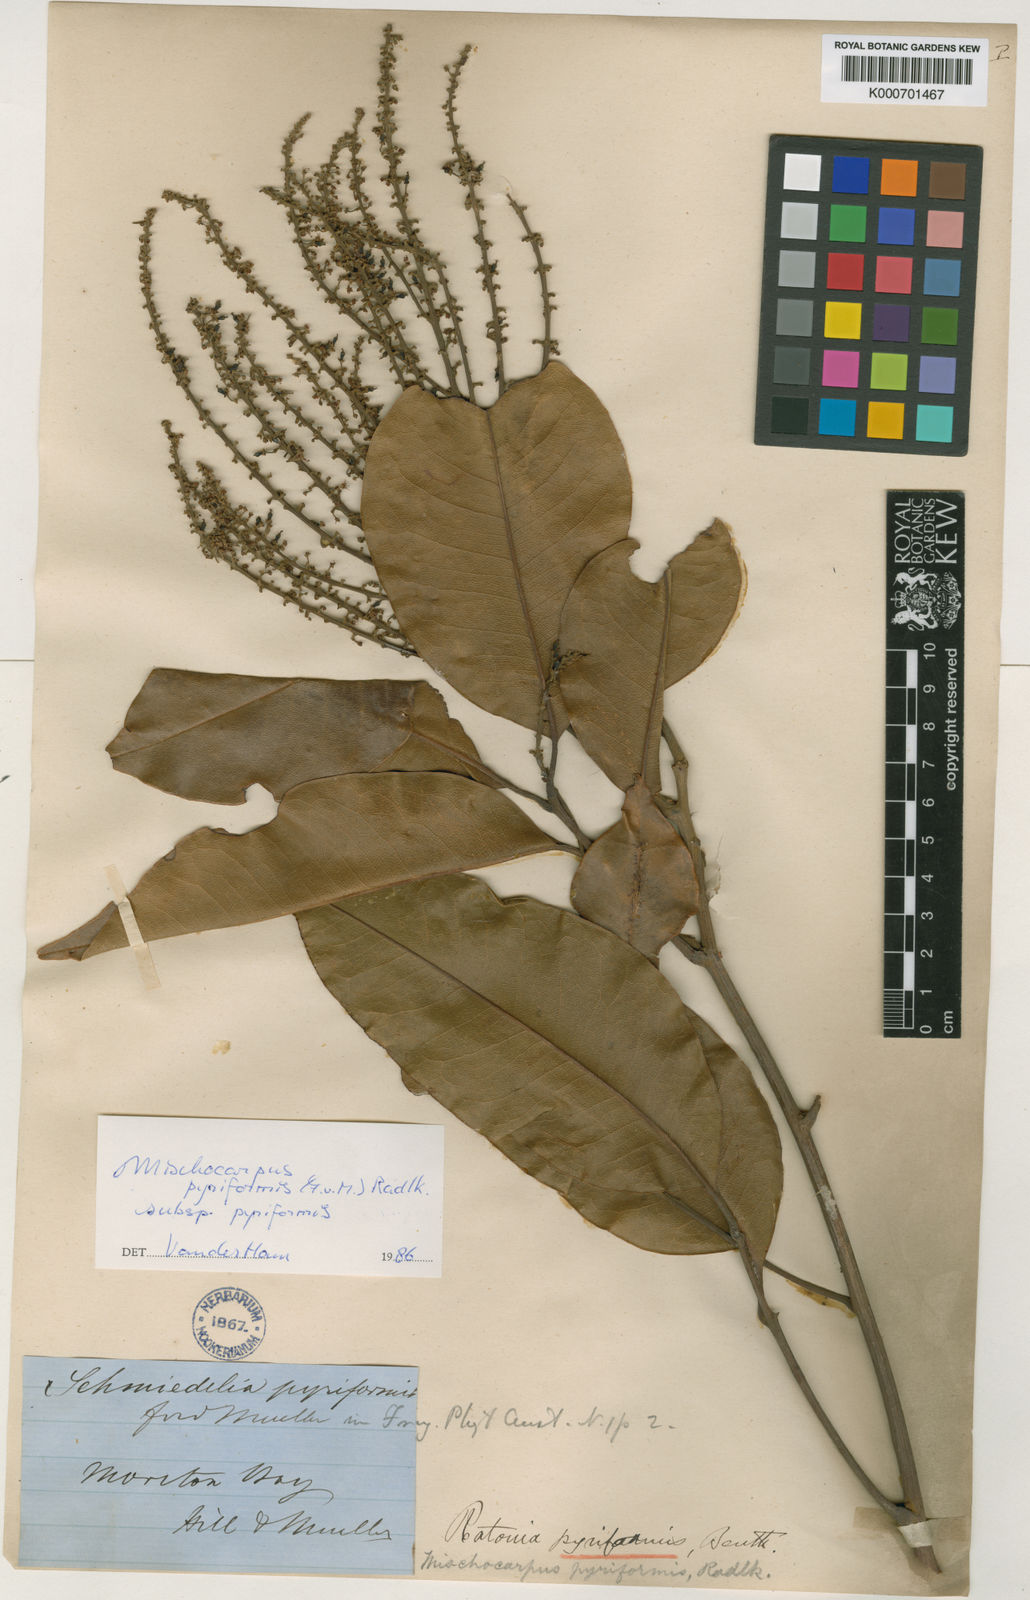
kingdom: Plantae
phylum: Tracheophyta
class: Magnoliopsida
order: Sapindales
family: Sapindaceae
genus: Mischocarpus
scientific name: Mischocarpus pyriformis
